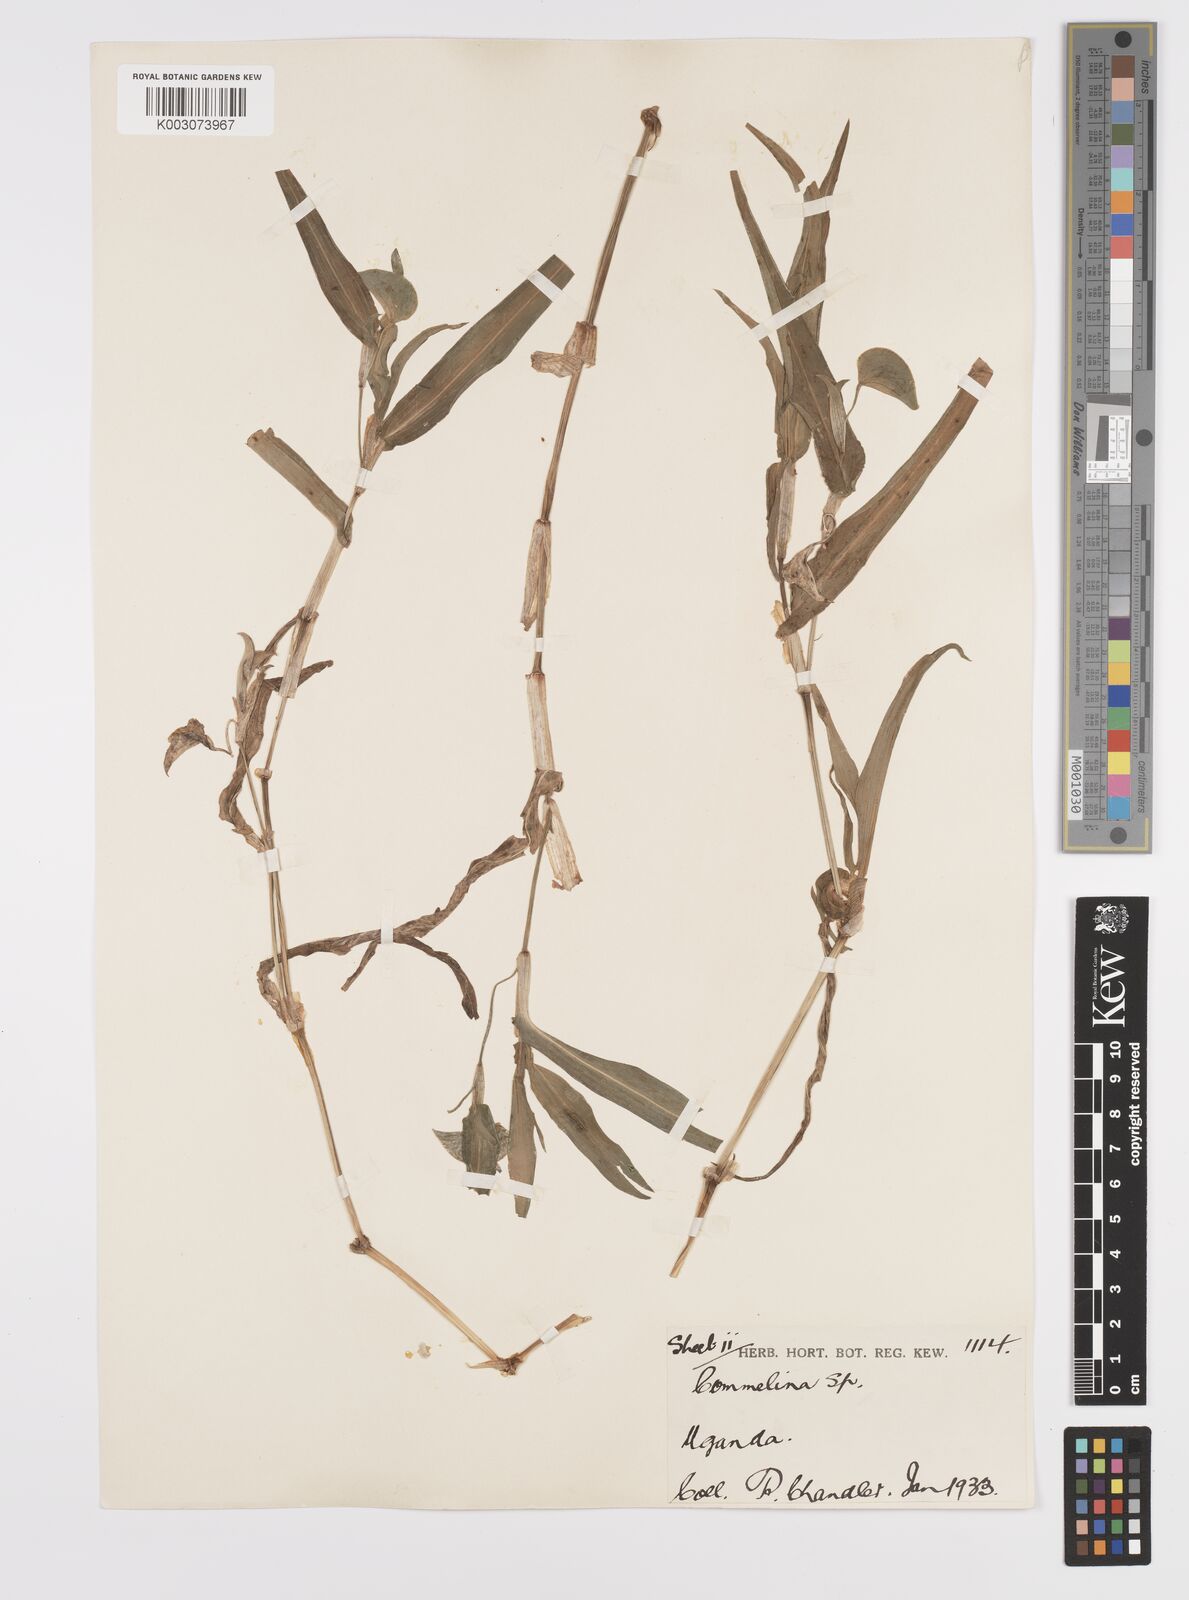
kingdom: Plantae
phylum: Tracheophyta
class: Liliopsida
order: Commelinales
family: Commelinaceae
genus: Commelina
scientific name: Commelina imberbis
